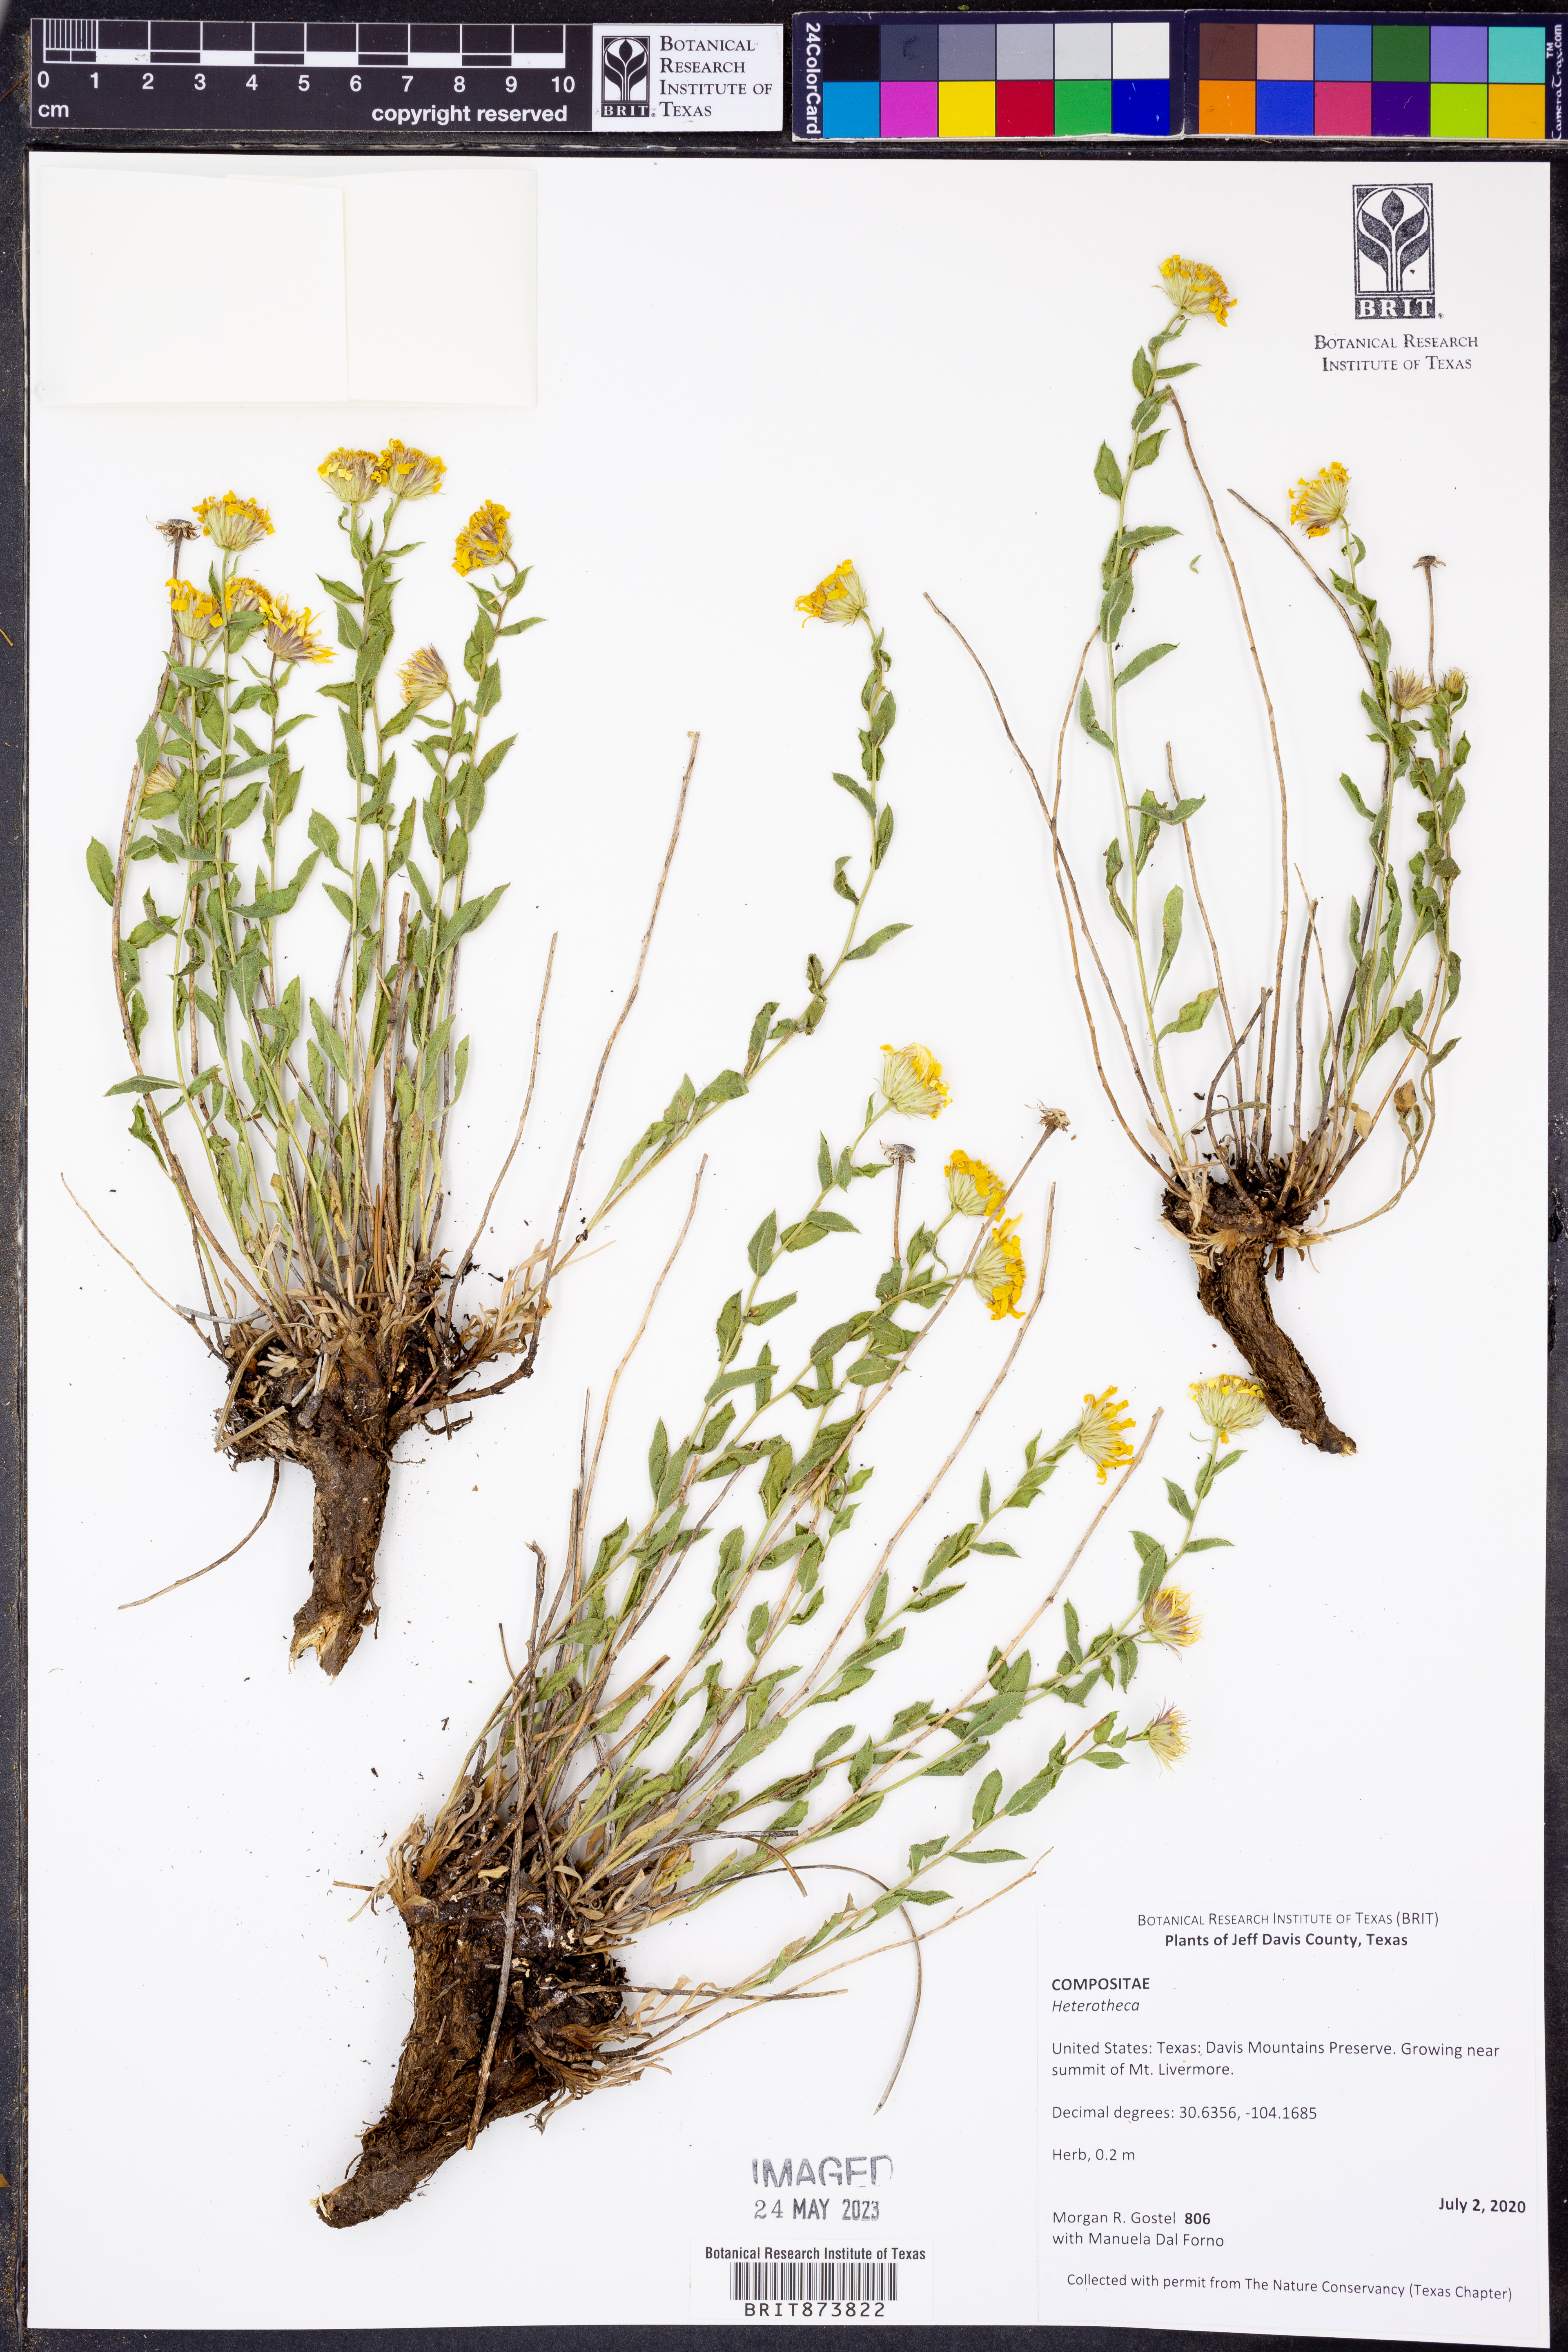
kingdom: Plantae
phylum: Tracheophyta
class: Magnoliopsida
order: Asterales
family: Asteraceae
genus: Heterotheca
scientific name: Heterotheca
